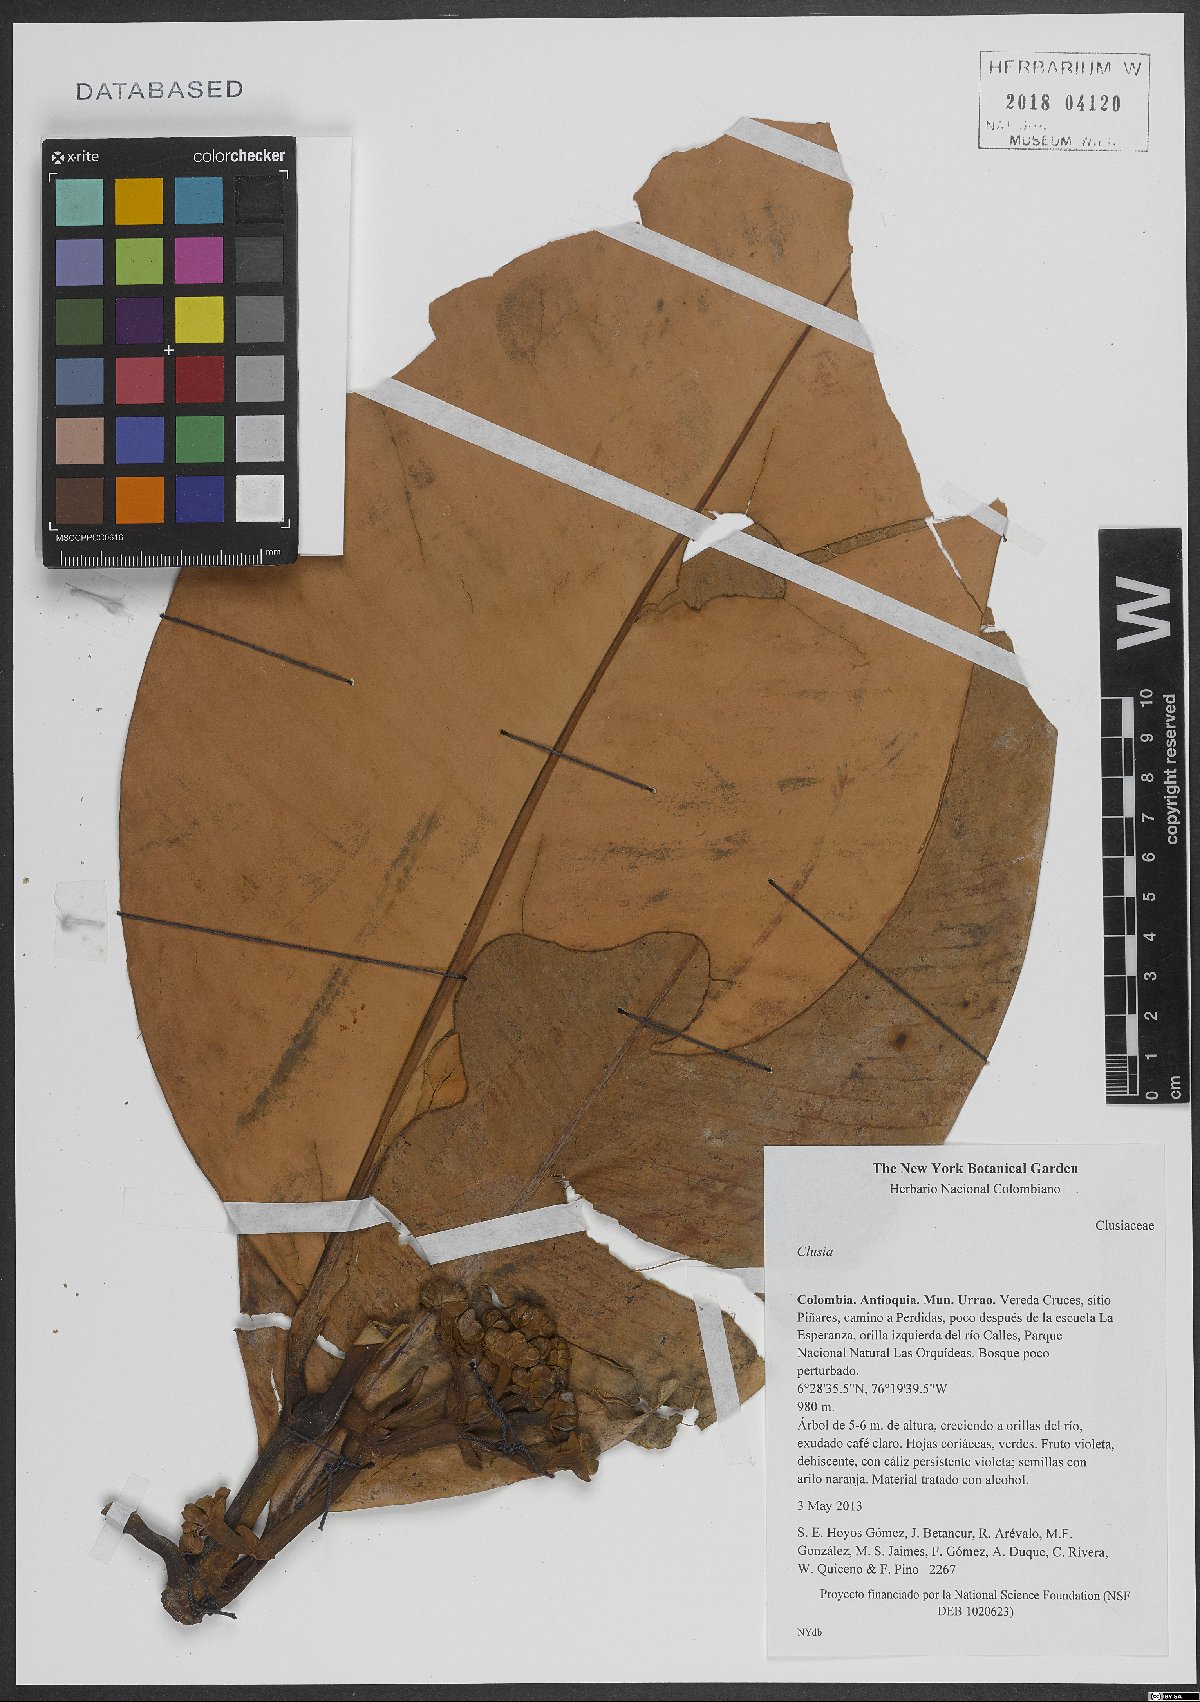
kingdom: Plantae
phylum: Tracheophyta
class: Magnoliopsida
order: Malpighiales
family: Clusiaceae
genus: Clusia
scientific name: Clusia
